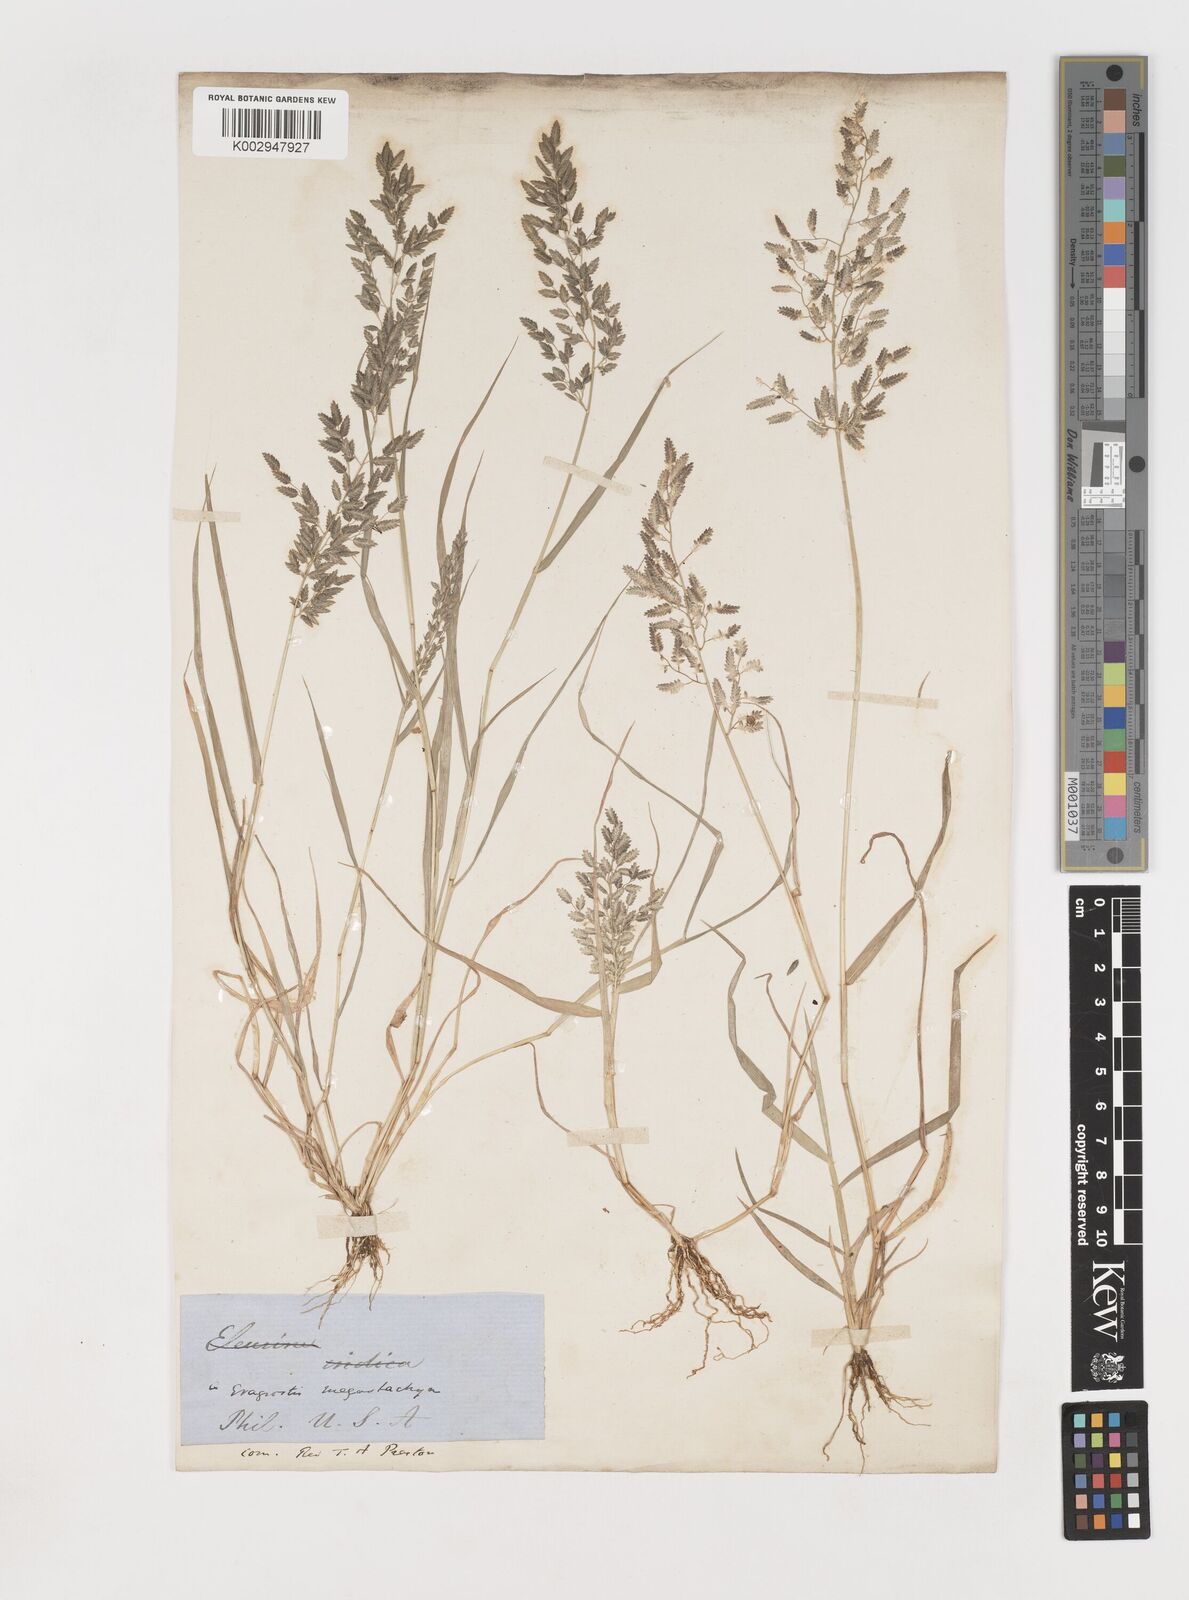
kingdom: Plantae
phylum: Tracheophyta
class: Liliopsida
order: Poales
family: Poaceae
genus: Eragrostis
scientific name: Eragrostis
